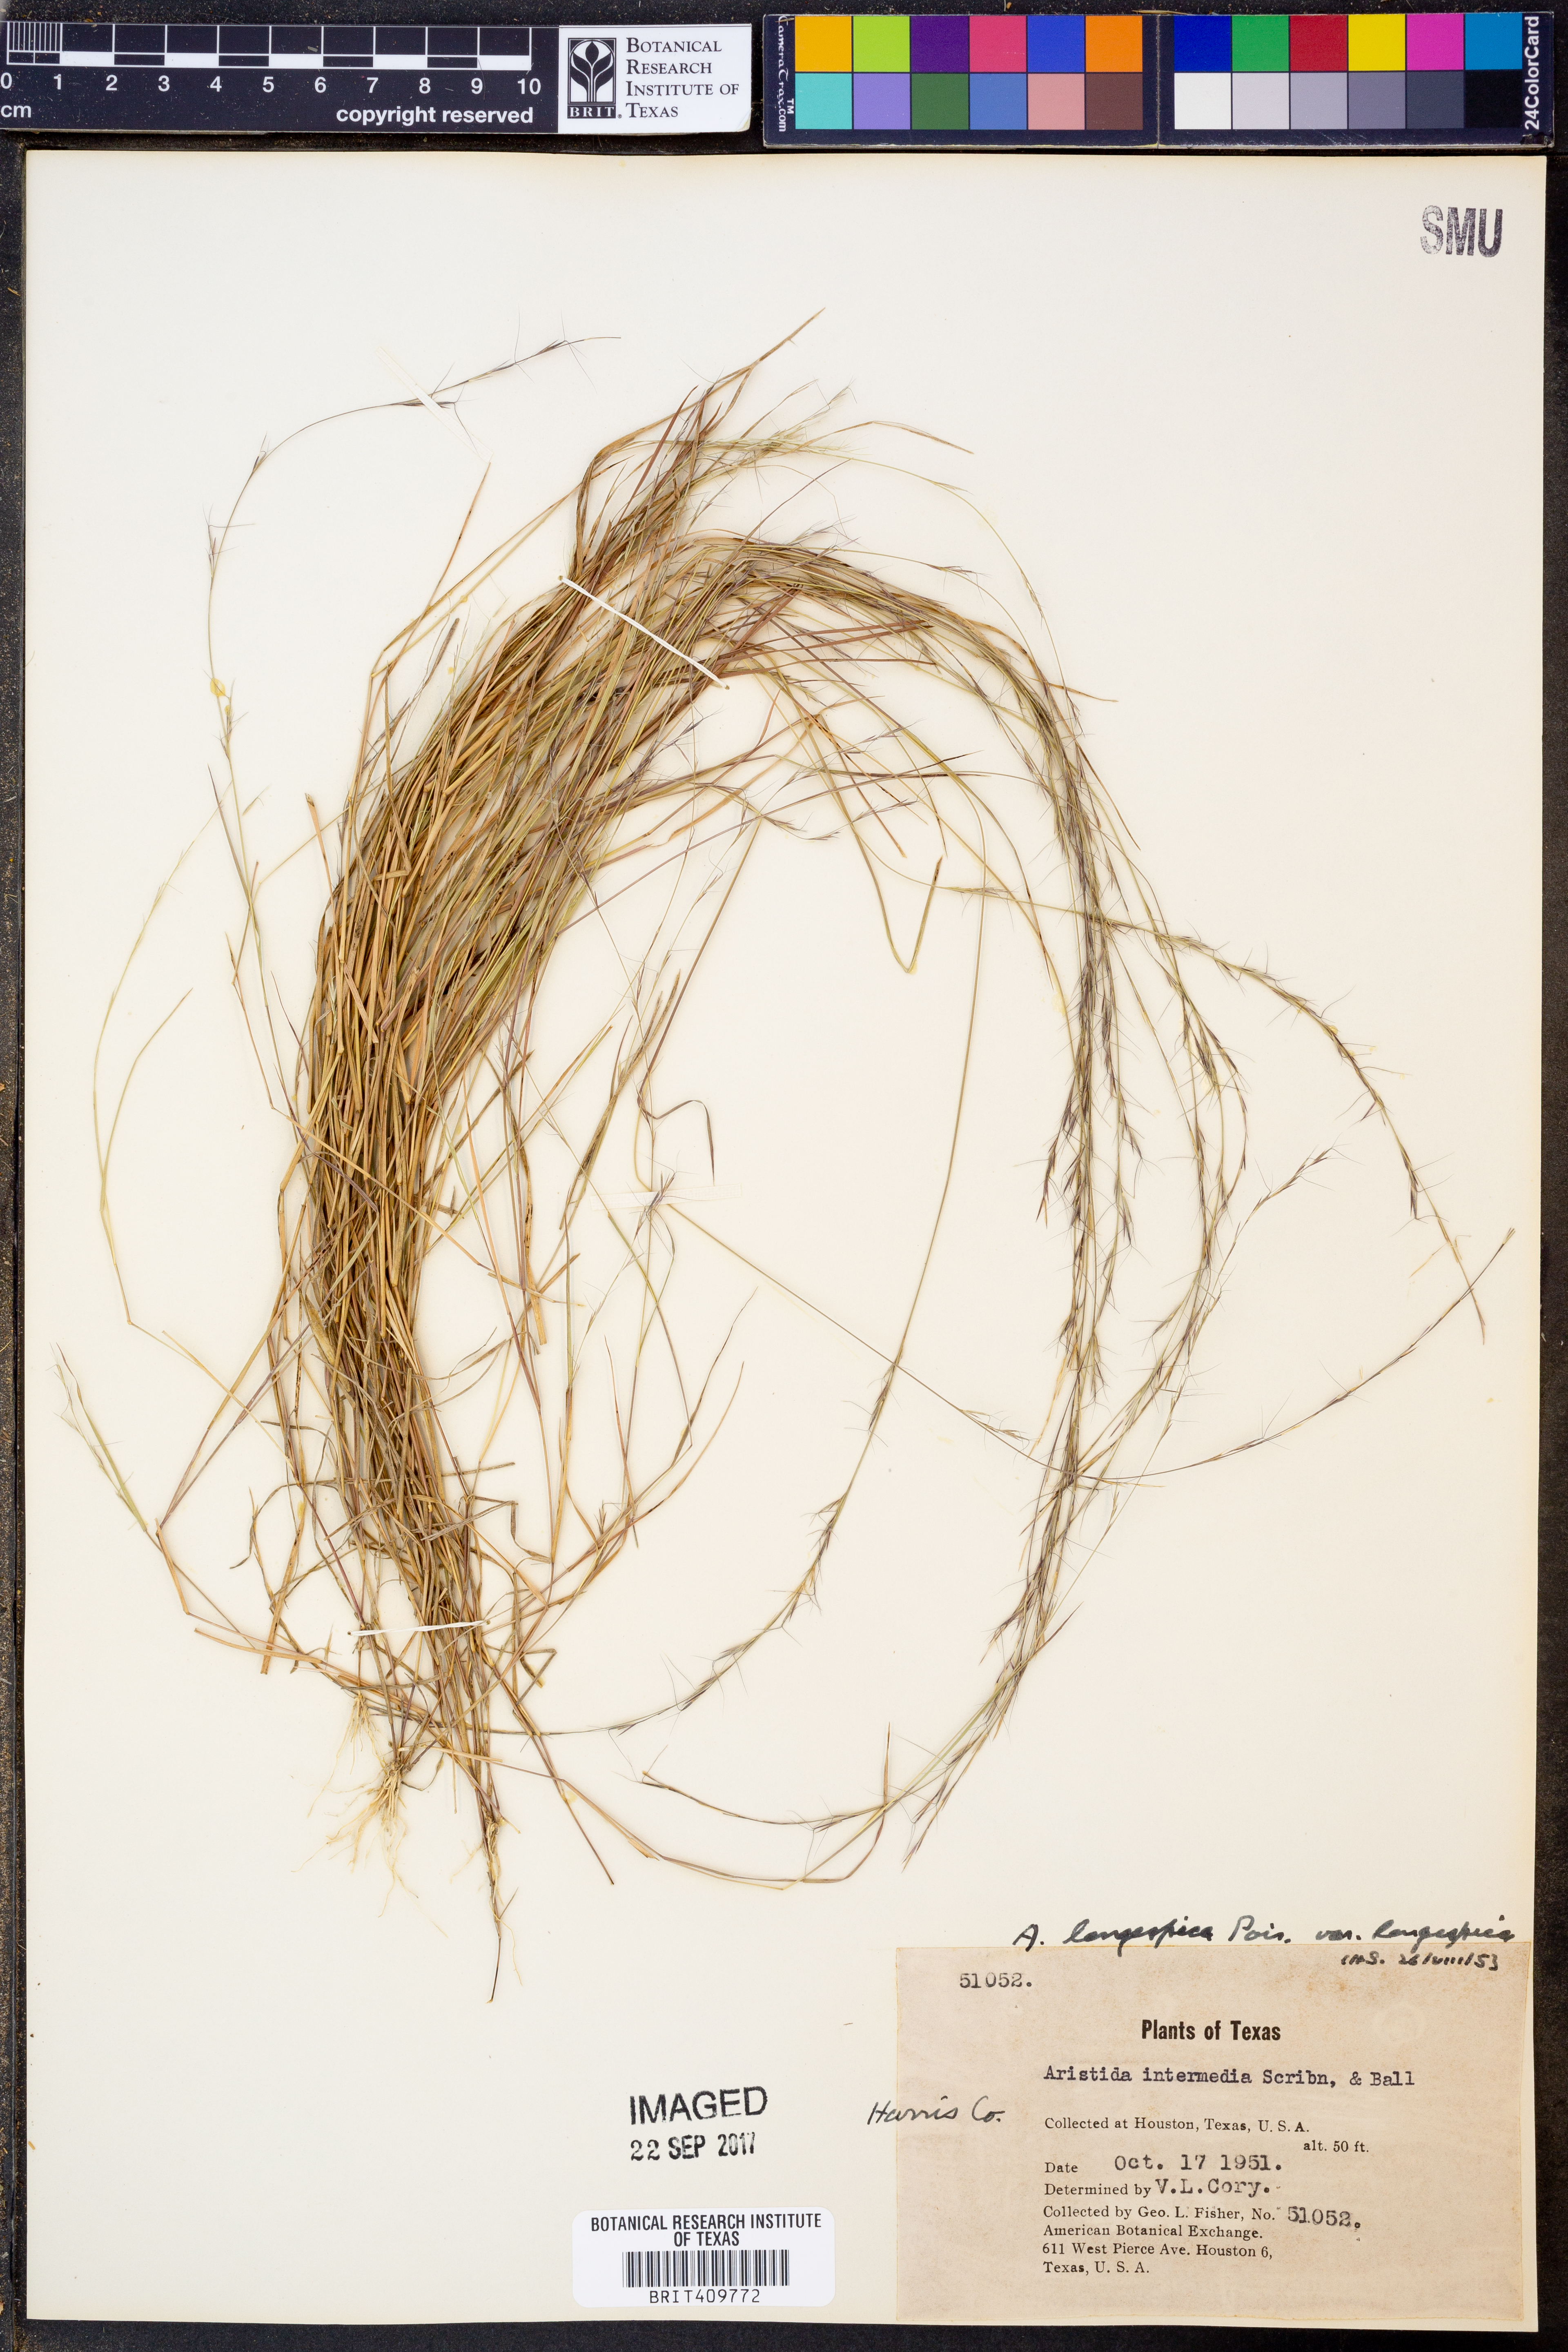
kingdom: Plantae
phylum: Tracheophyta
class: Liliopsida
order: Poales
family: Poaceae
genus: Aristida
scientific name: Aristida longespica
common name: Long-spiked triple-awned grass
